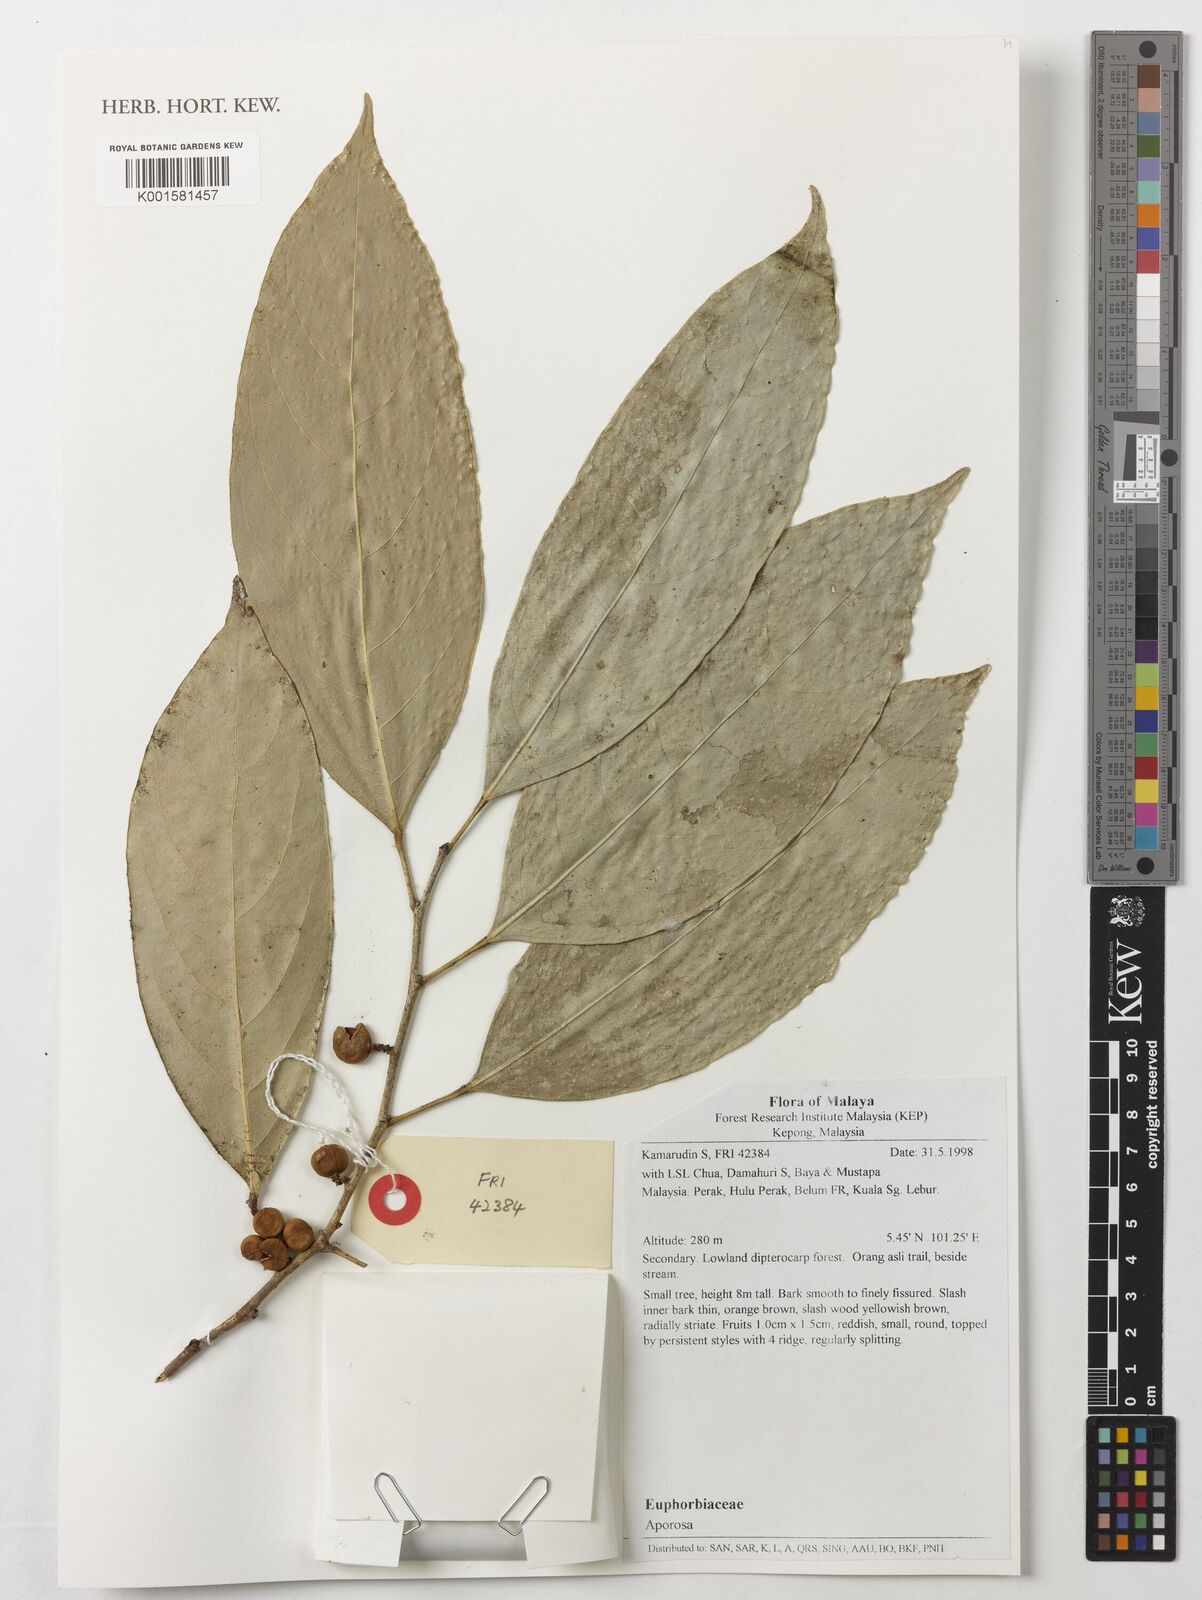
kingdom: Plantae
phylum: Tracheophyta
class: Magnoliopsida
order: Malpighiales
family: Phyllanthaceae
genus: Aporosa
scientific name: Aporosa
